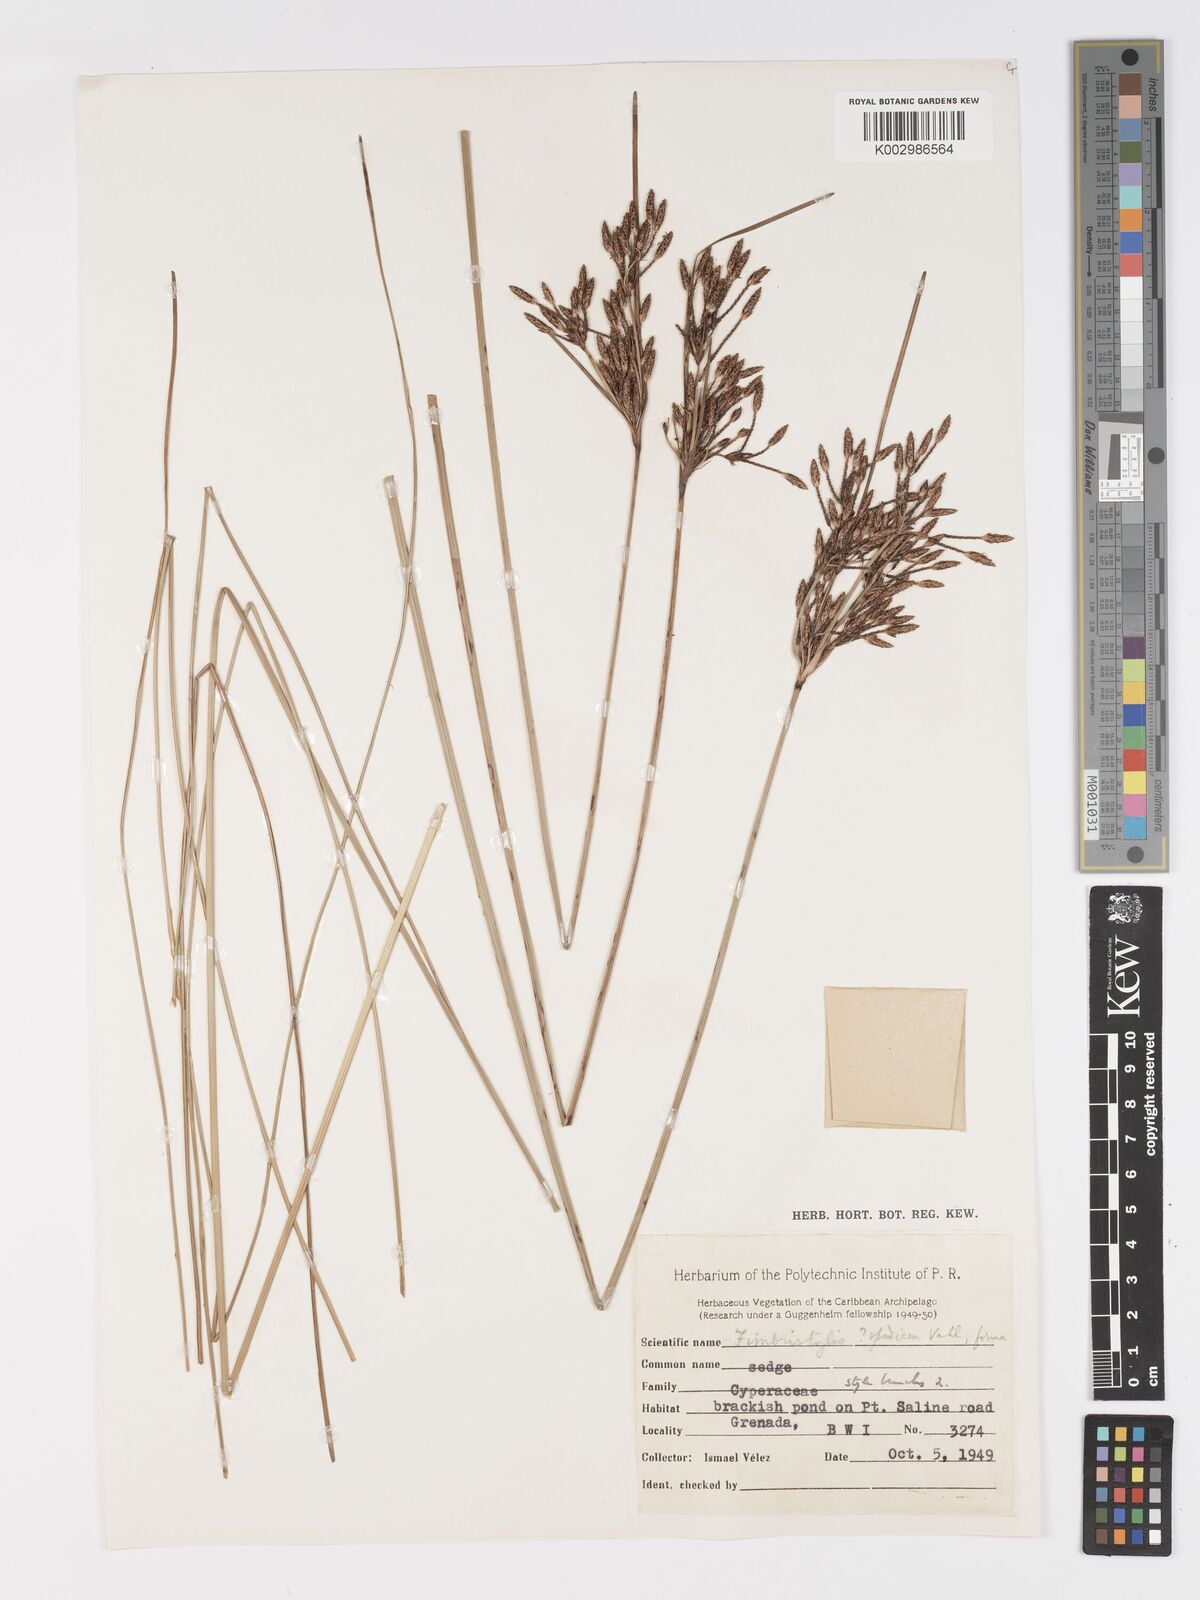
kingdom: Plantae
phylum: Tracheophyta
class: Liliopsida
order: Poales
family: Cyperaceae
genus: Fimbristylis
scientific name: Fimbristylis spadicea
